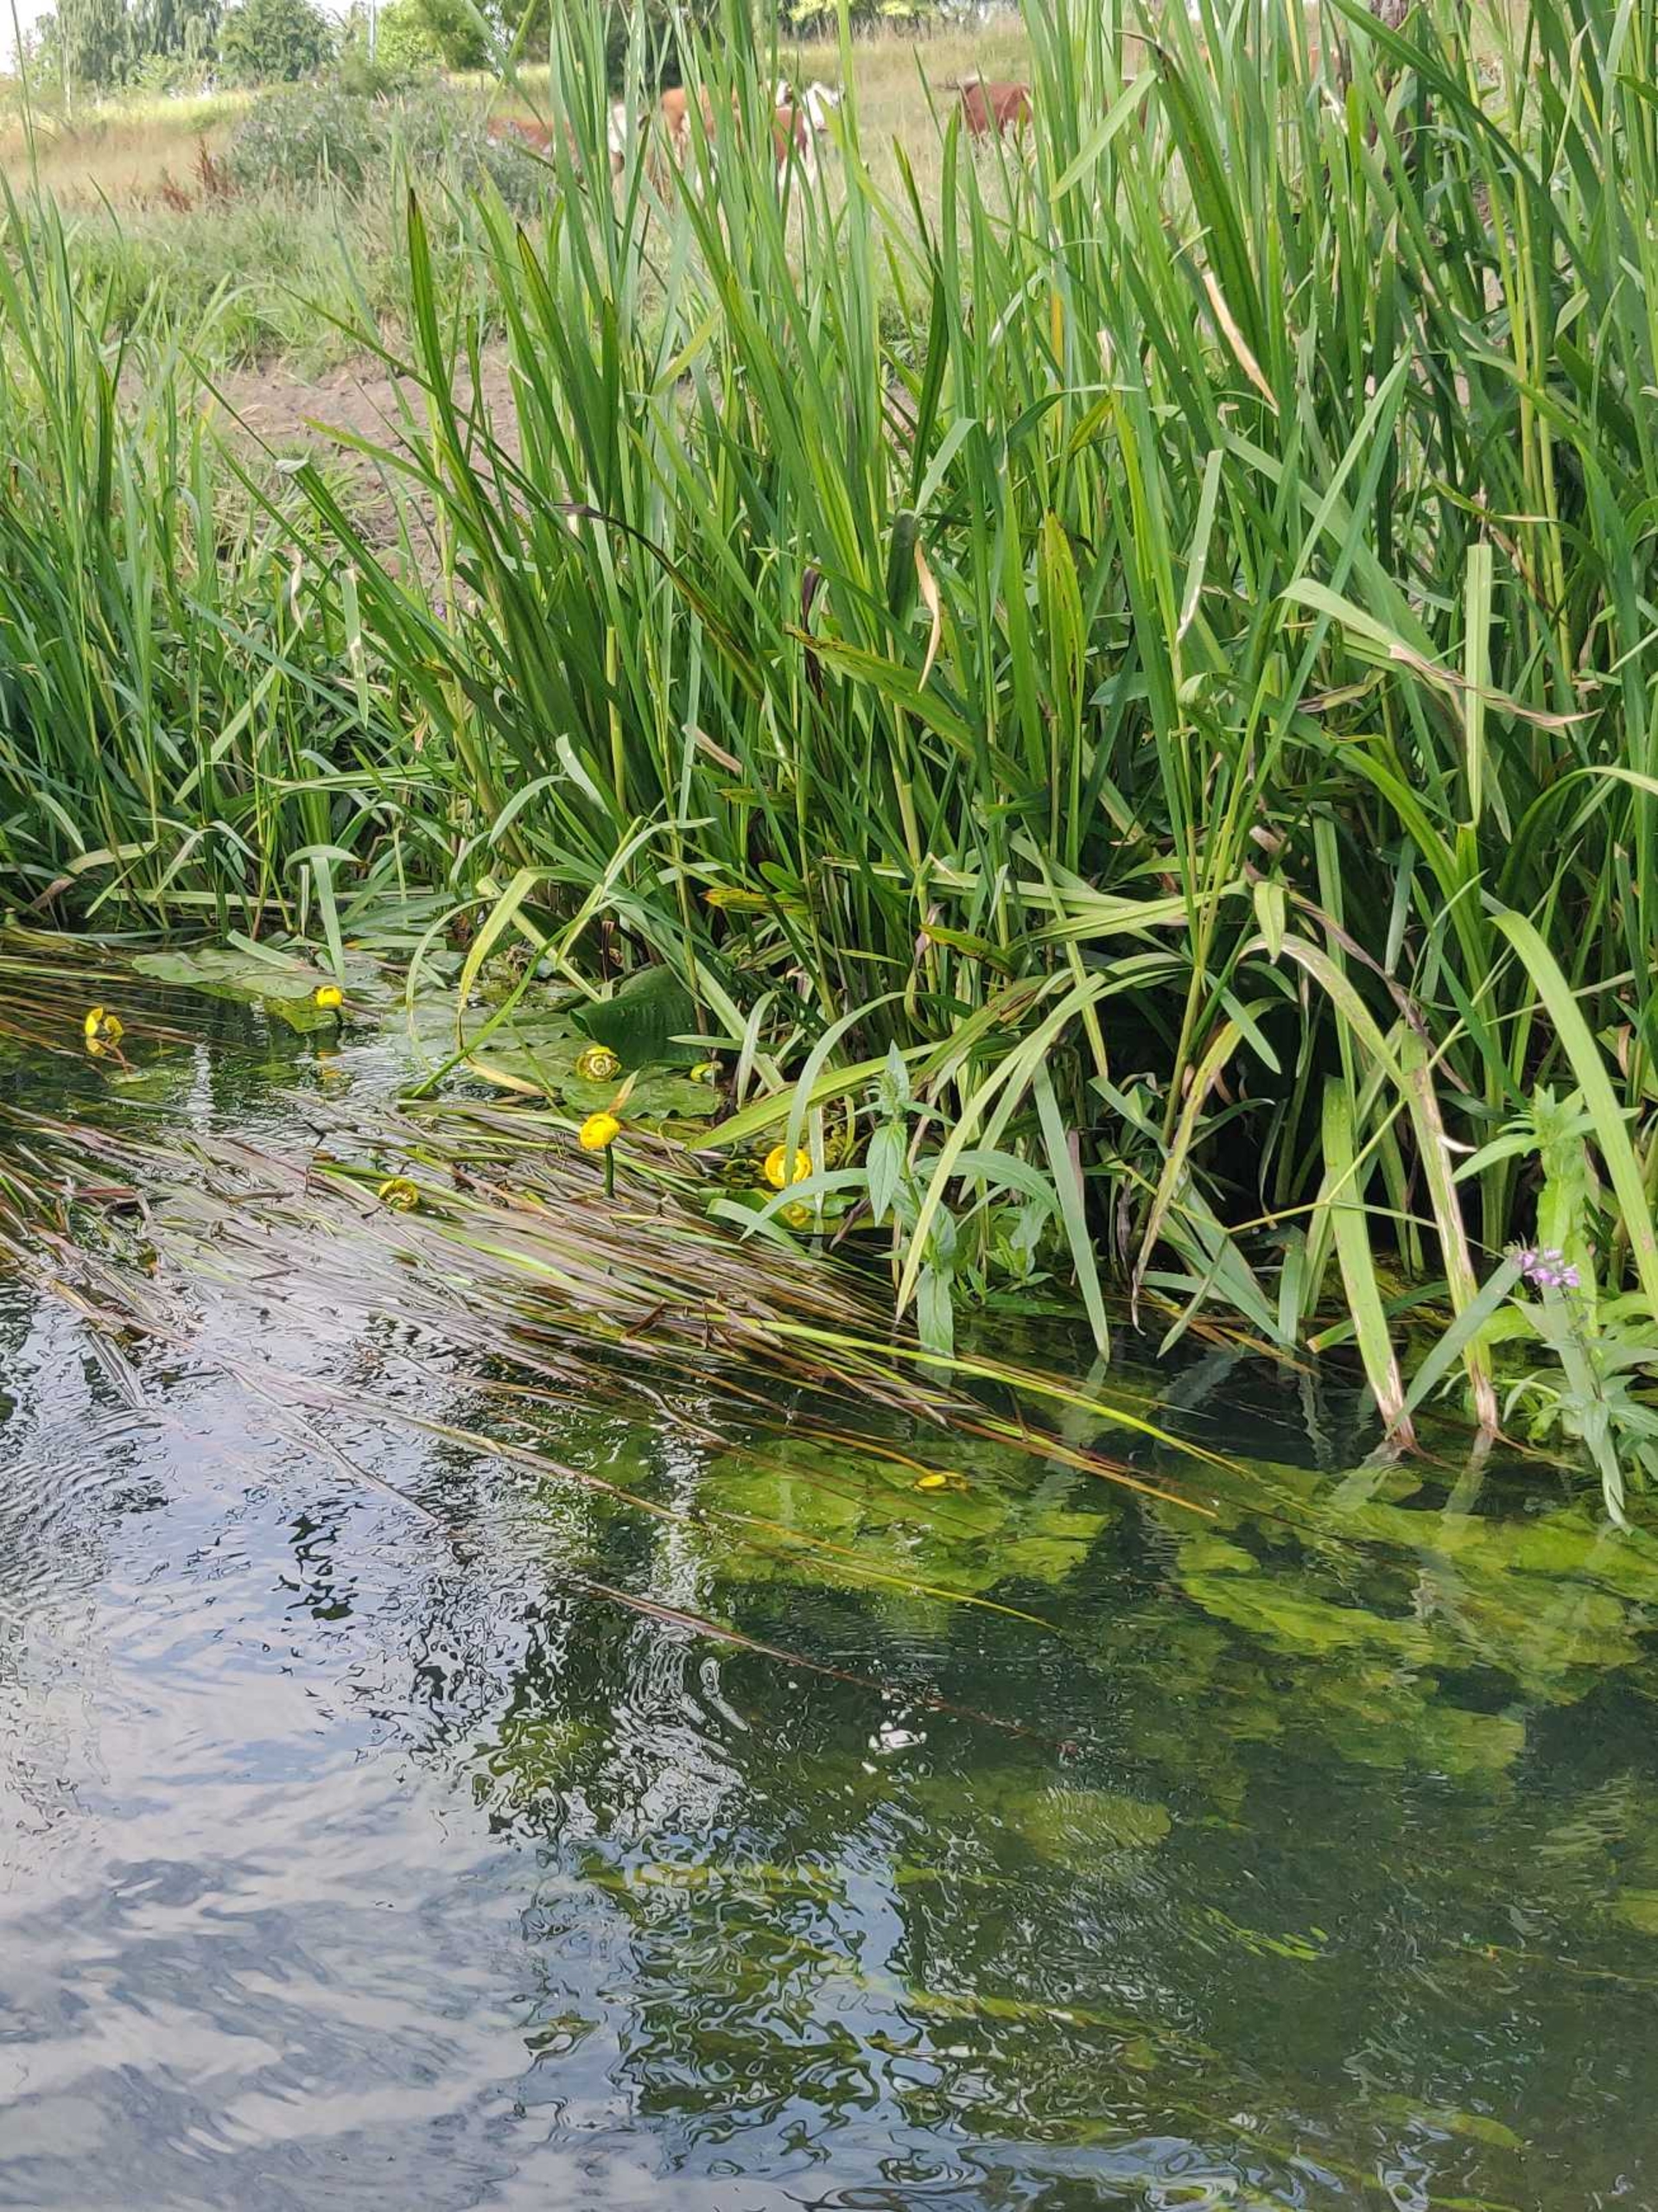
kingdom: Plantae
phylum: Tracheophyta
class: Magnoliopsida
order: Nymphaeales
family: Nymphaeaceae
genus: Nuphar
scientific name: Nuphar lutea
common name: Gul åkande
